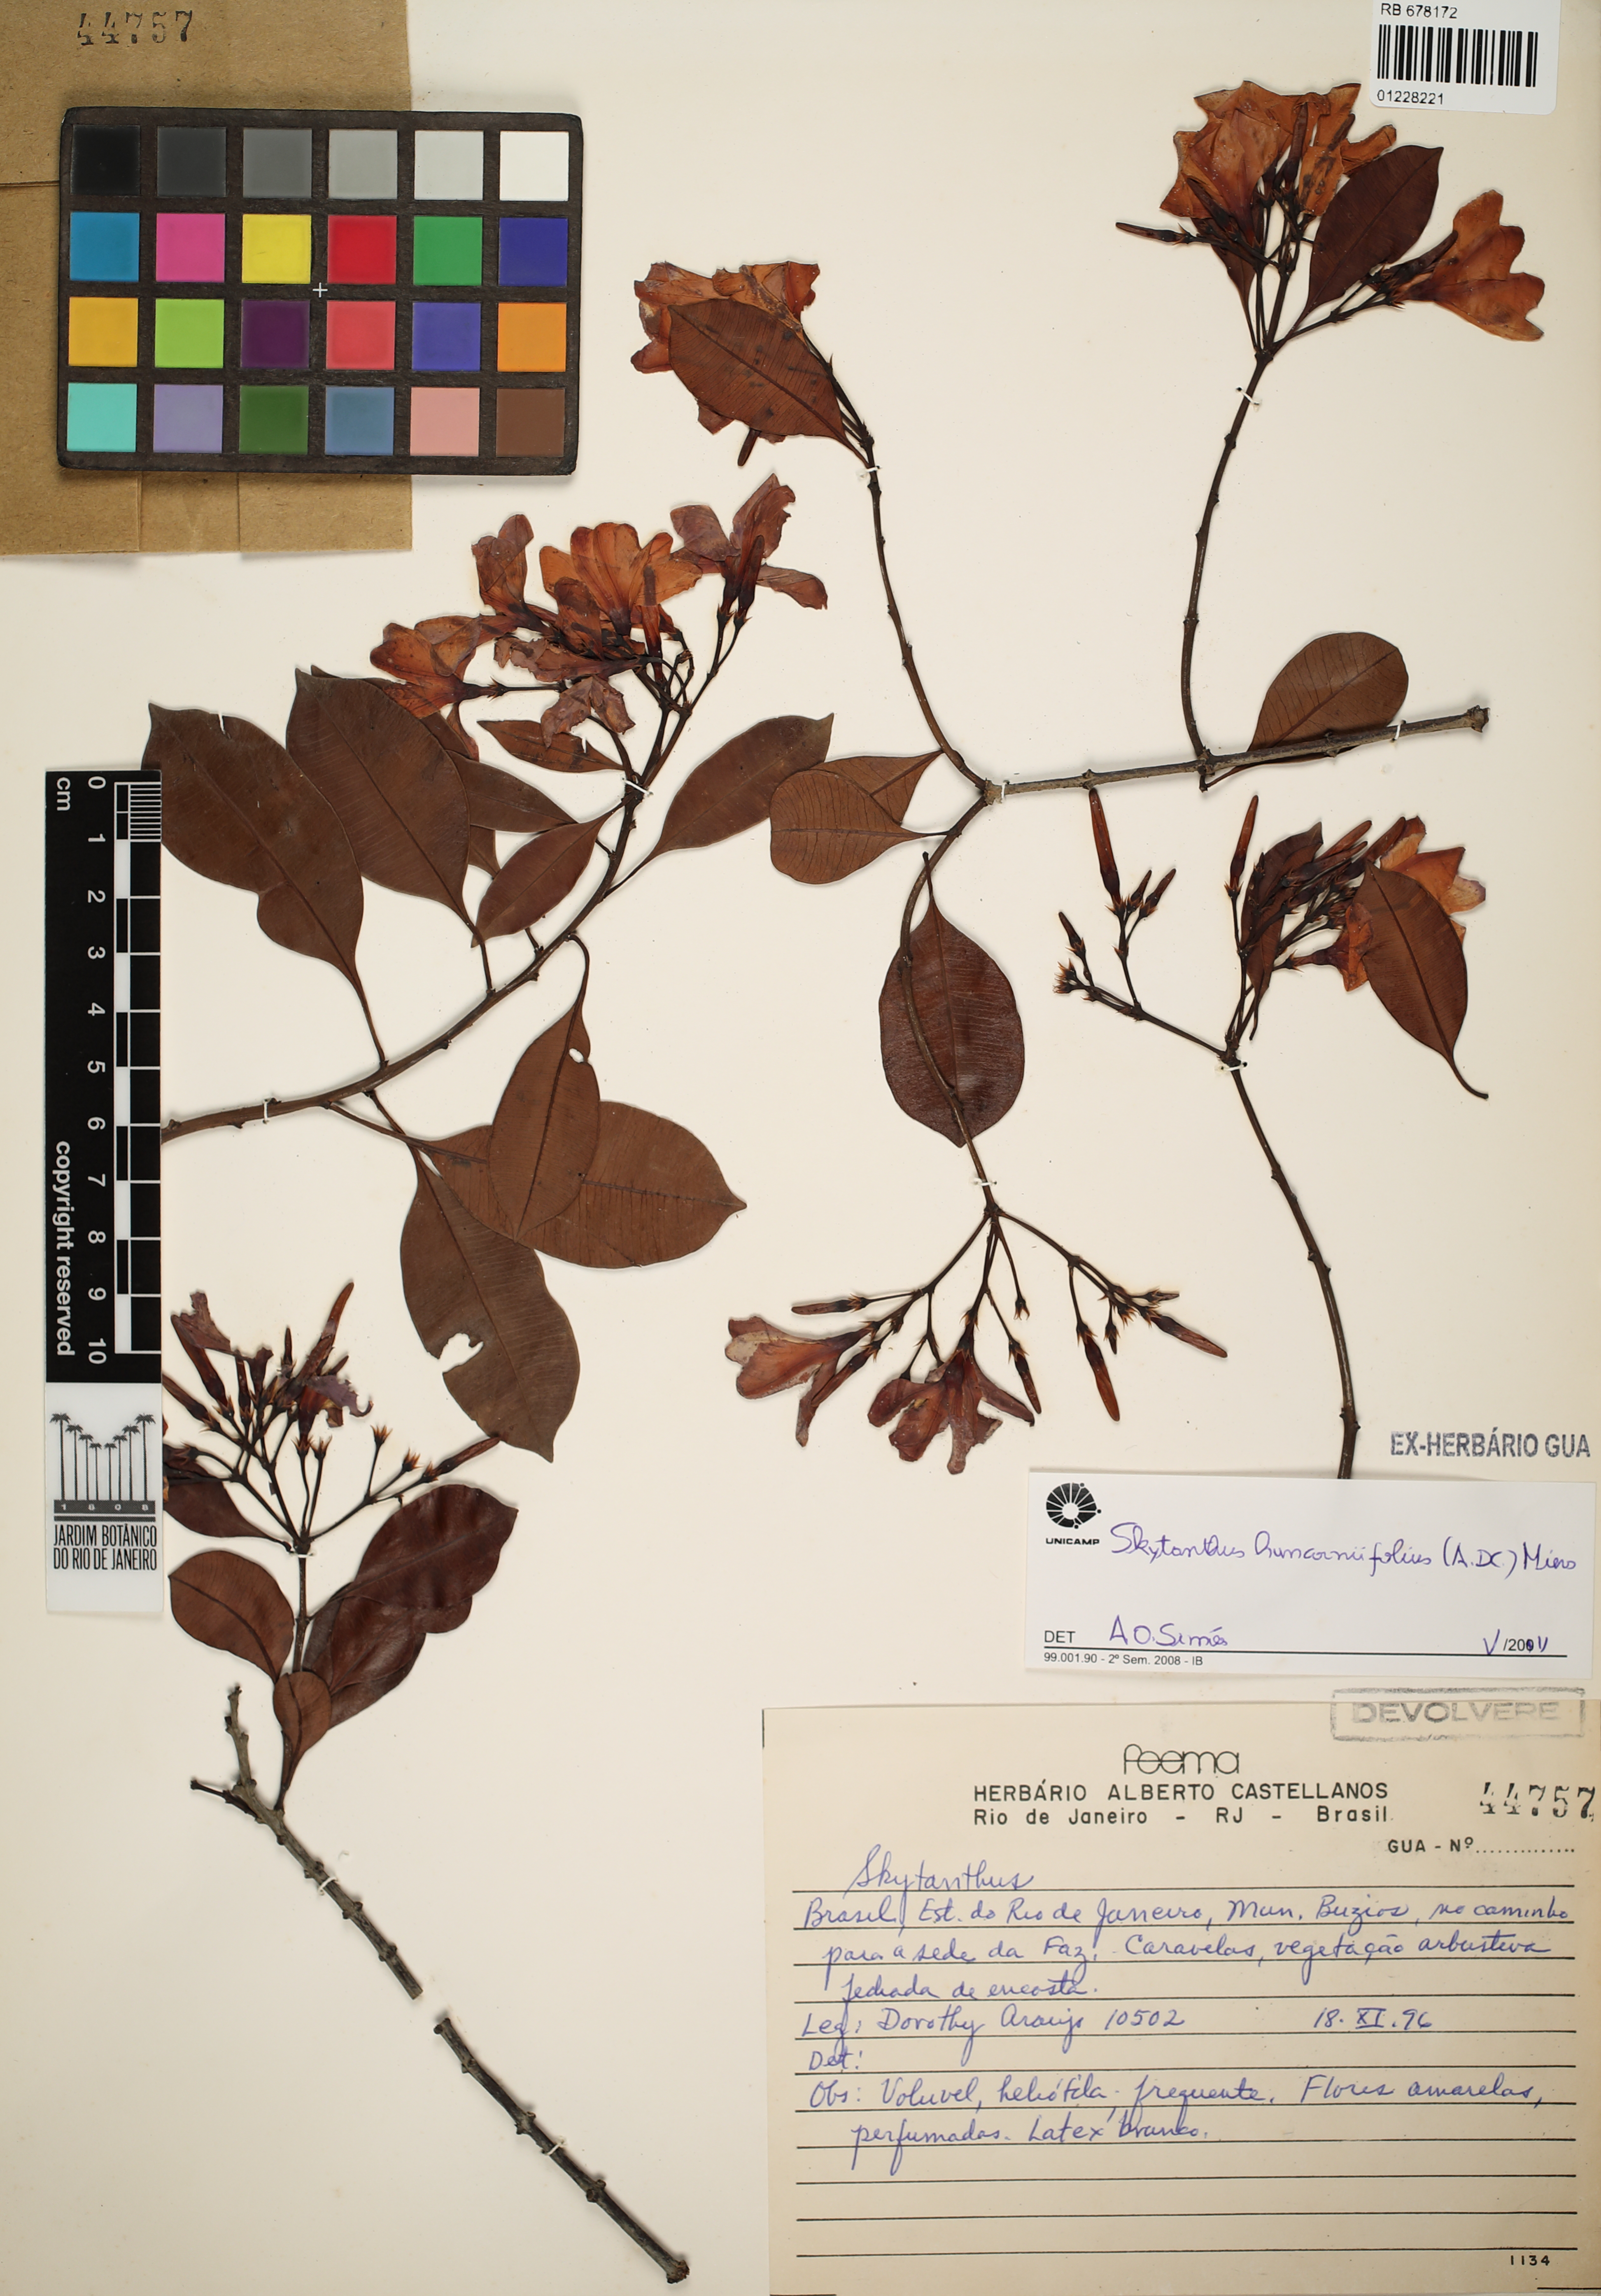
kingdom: Plantae
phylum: Tracheophyta
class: Magnoliopsida
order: Gentianales
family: Apocynaceae
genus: Skytanthus
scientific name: Skytanthus hancorniifolius
